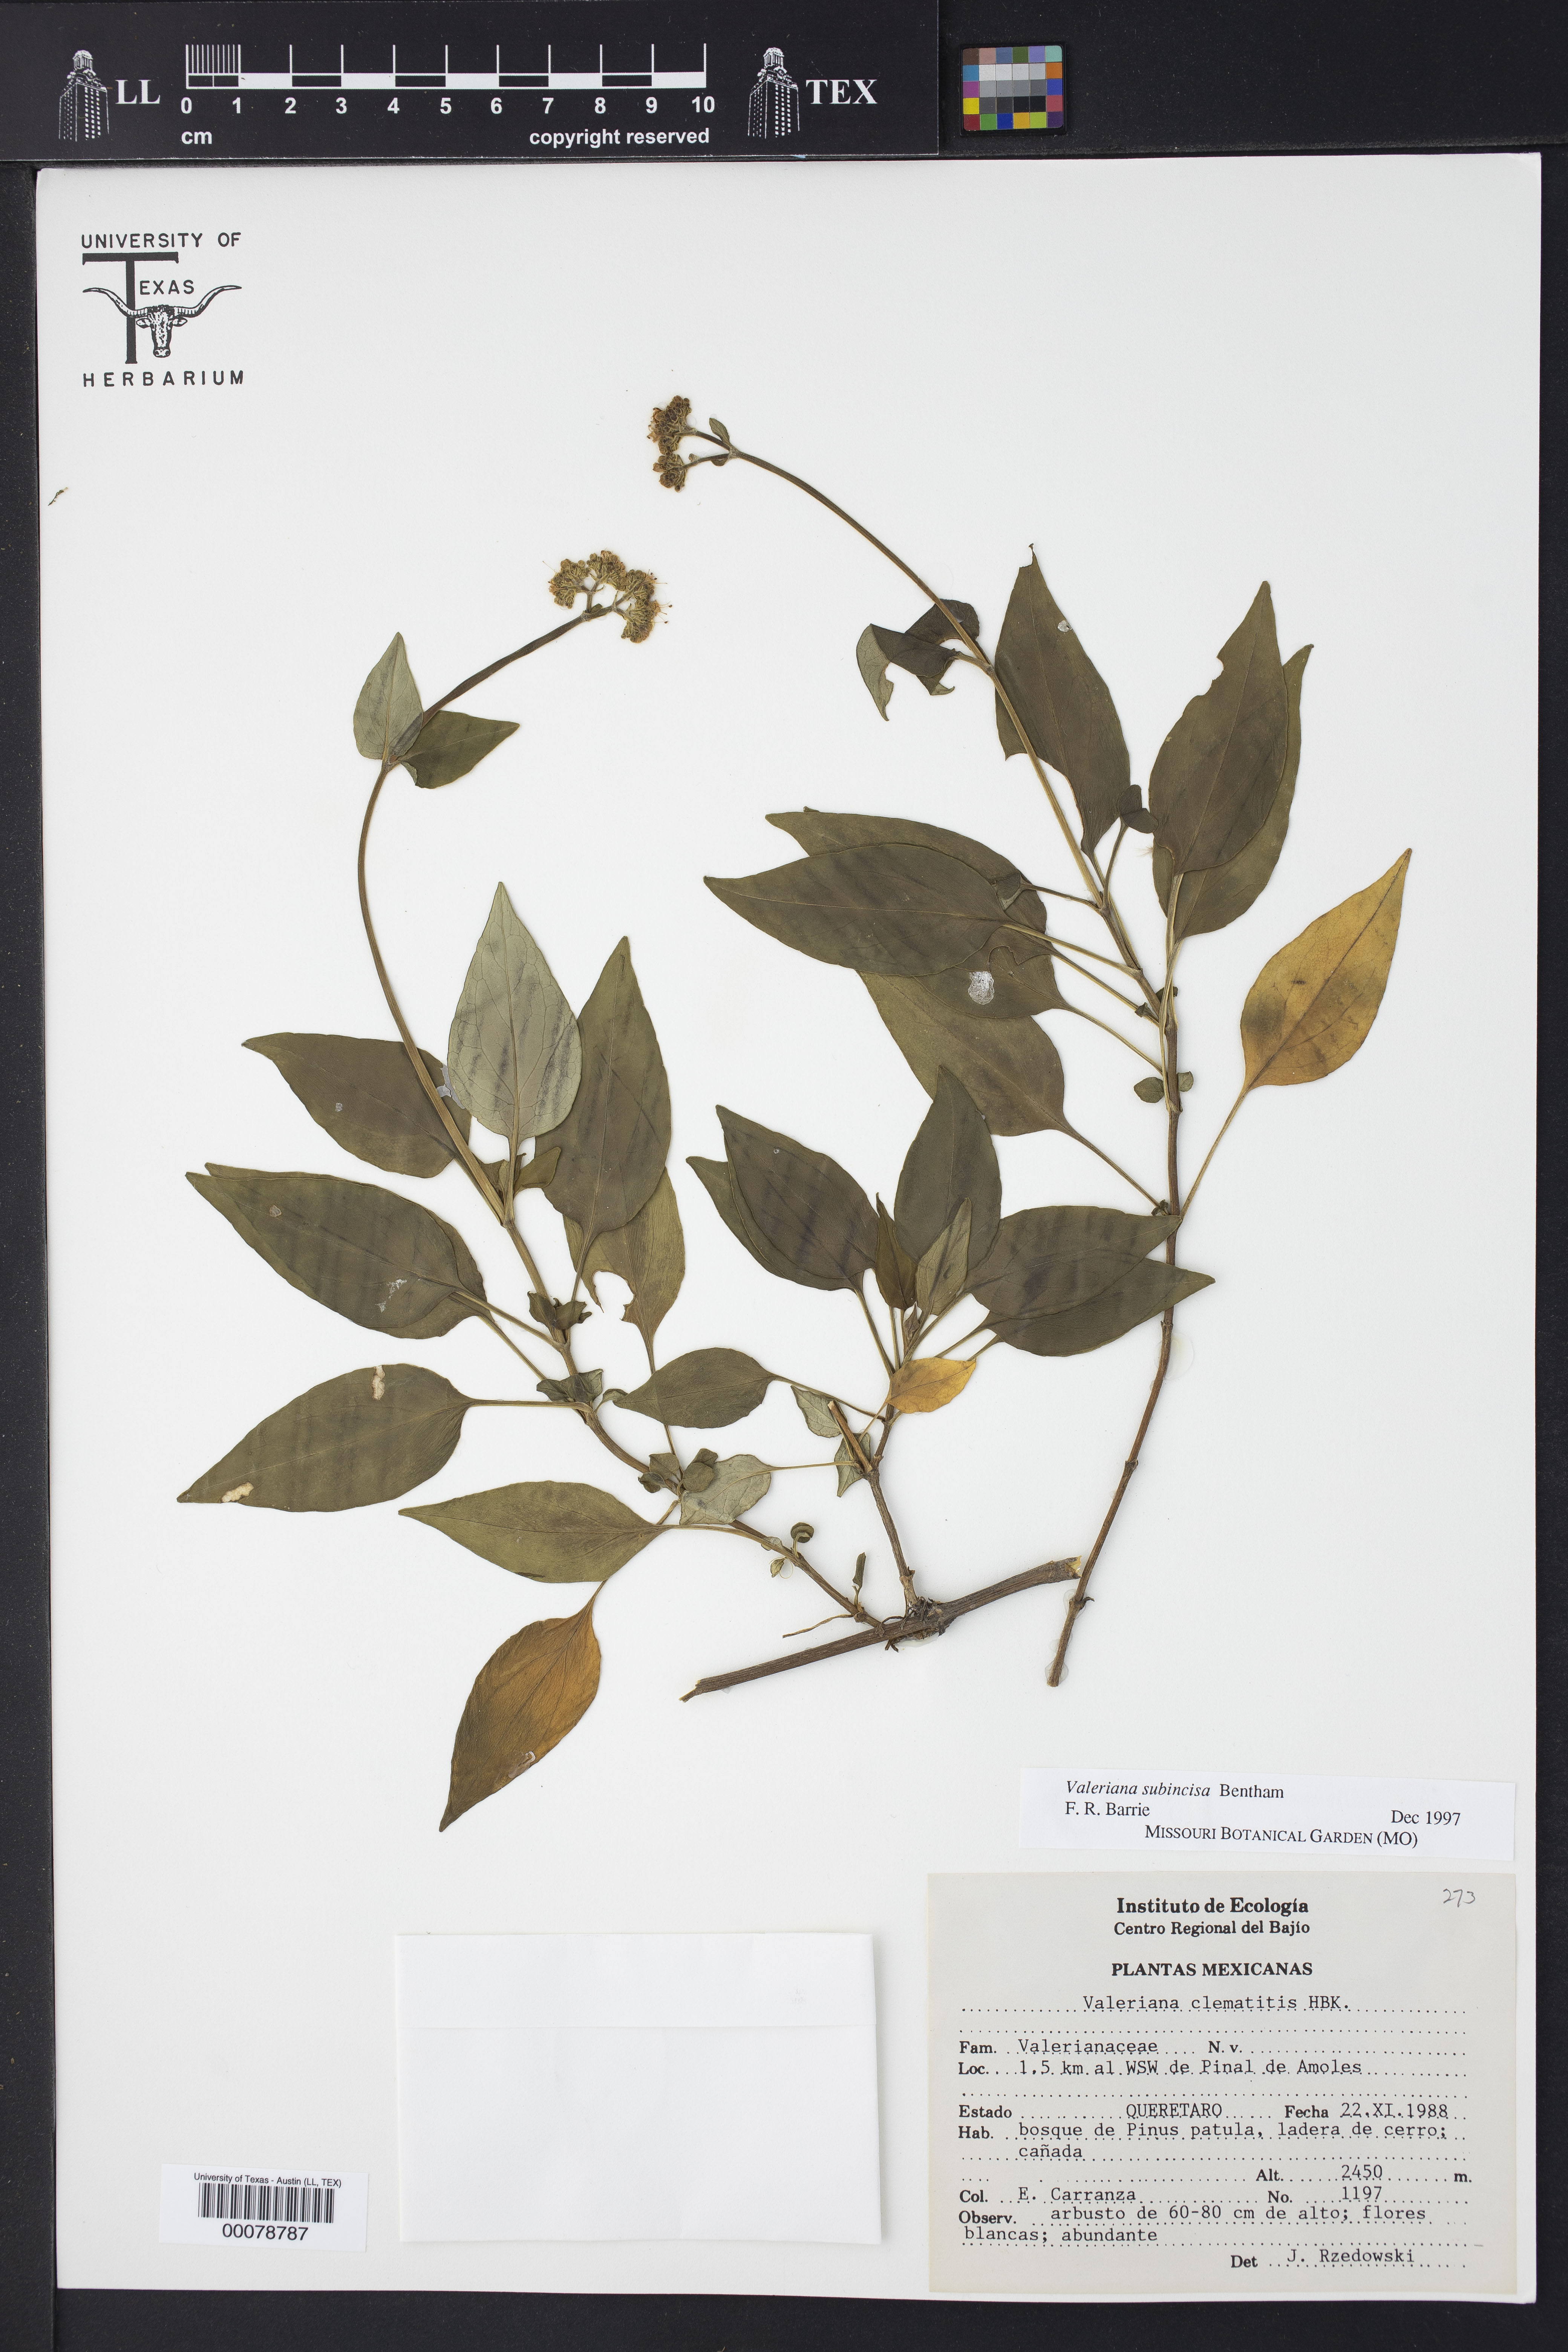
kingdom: Plantae
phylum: Tracheophyta
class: Magnoliopsida
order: Dipsacales
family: Caprifoliaceae
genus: Valeriana
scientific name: Valeriana subincisa
